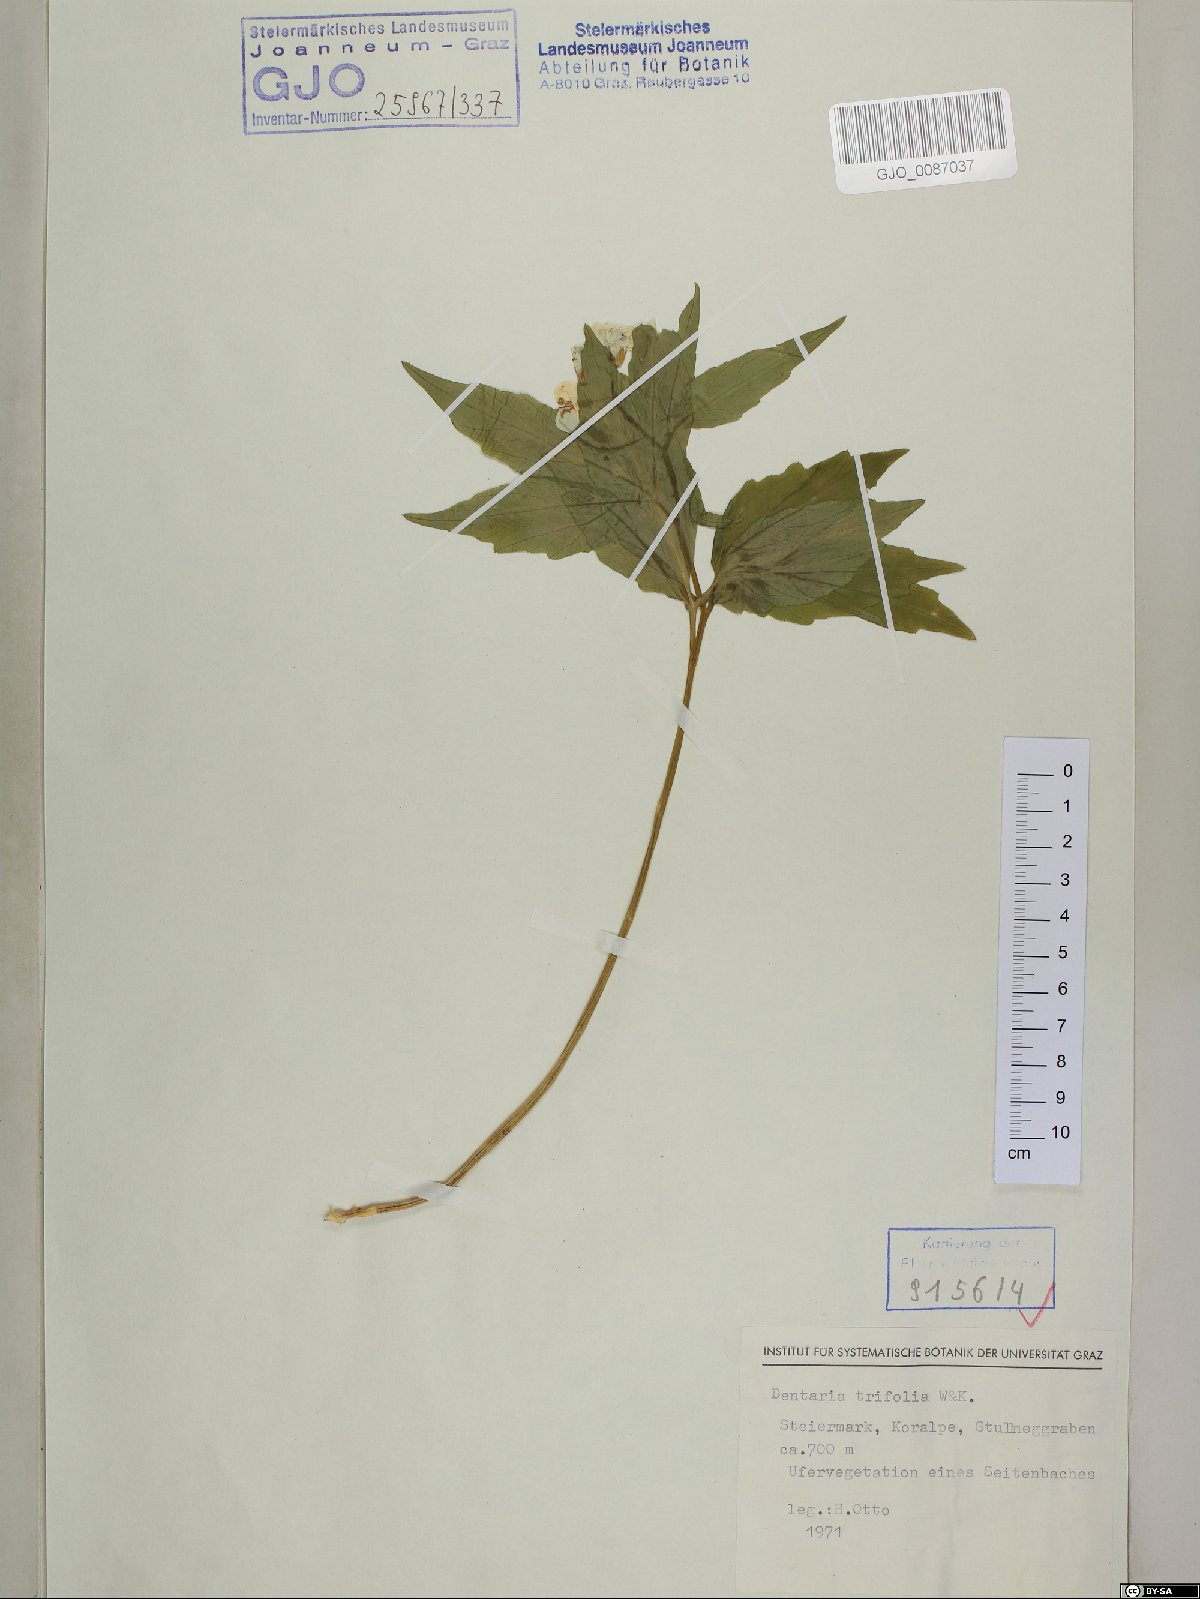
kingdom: Plantae
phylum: Tracheophyta
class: Magnoliopsida
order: Brassicales
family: Brassicaceae
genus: Cardamine
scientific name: Cardamine waldsteinii
